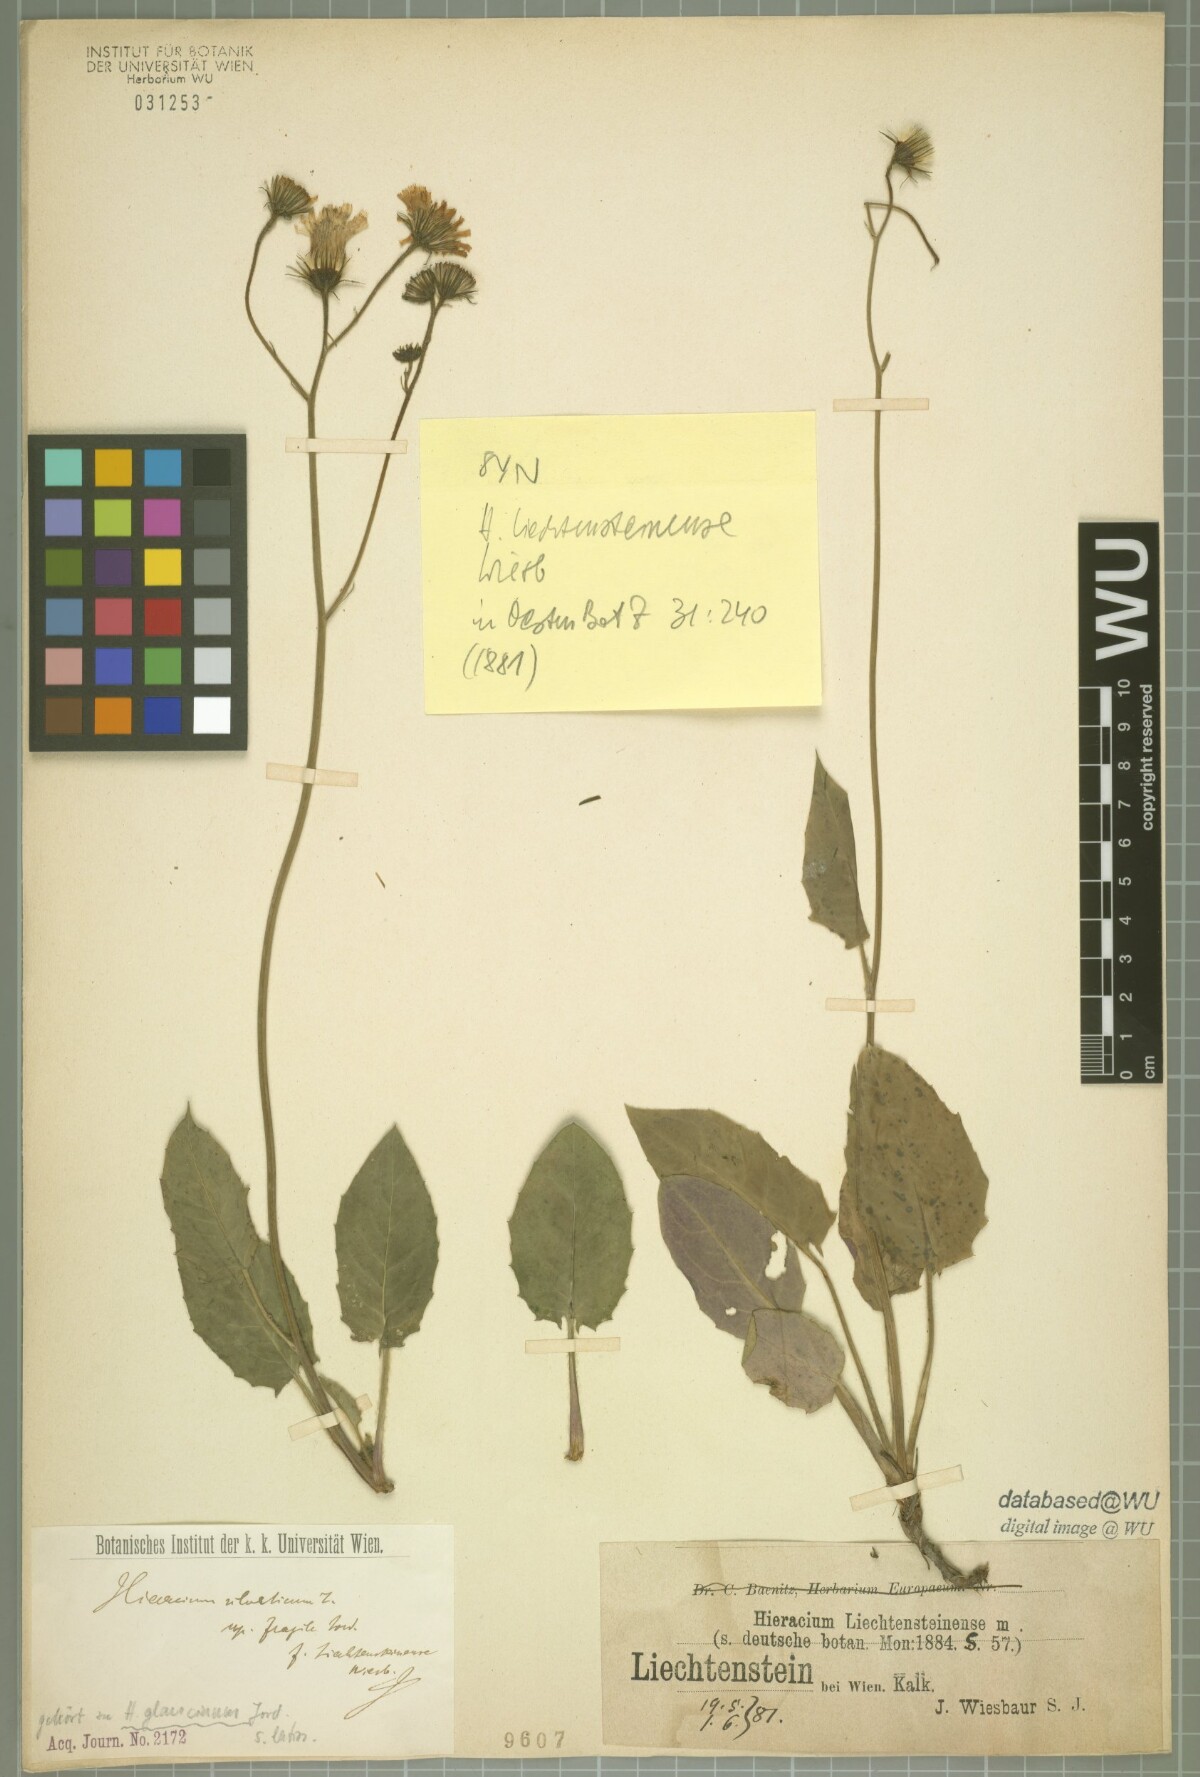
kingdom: Plantae
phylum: Tracheophyta
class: Magnoliopsida
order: Asterales
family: Asteraceae
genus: Hieracium
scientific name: Hieracium
